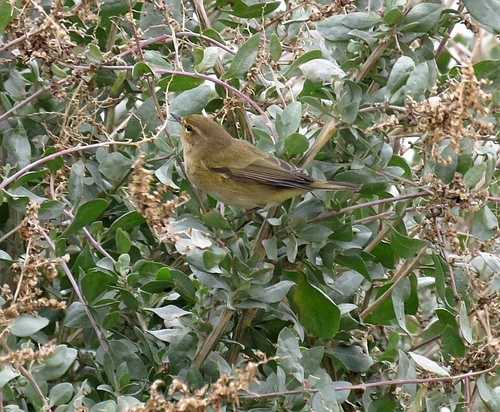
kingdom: Animalia
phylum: Chordata
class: Aves
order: Passeriformes
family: Phylloscopidae
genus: Phylloscopus
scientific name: Phylloscopus collybita
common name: Common chiffchaff
